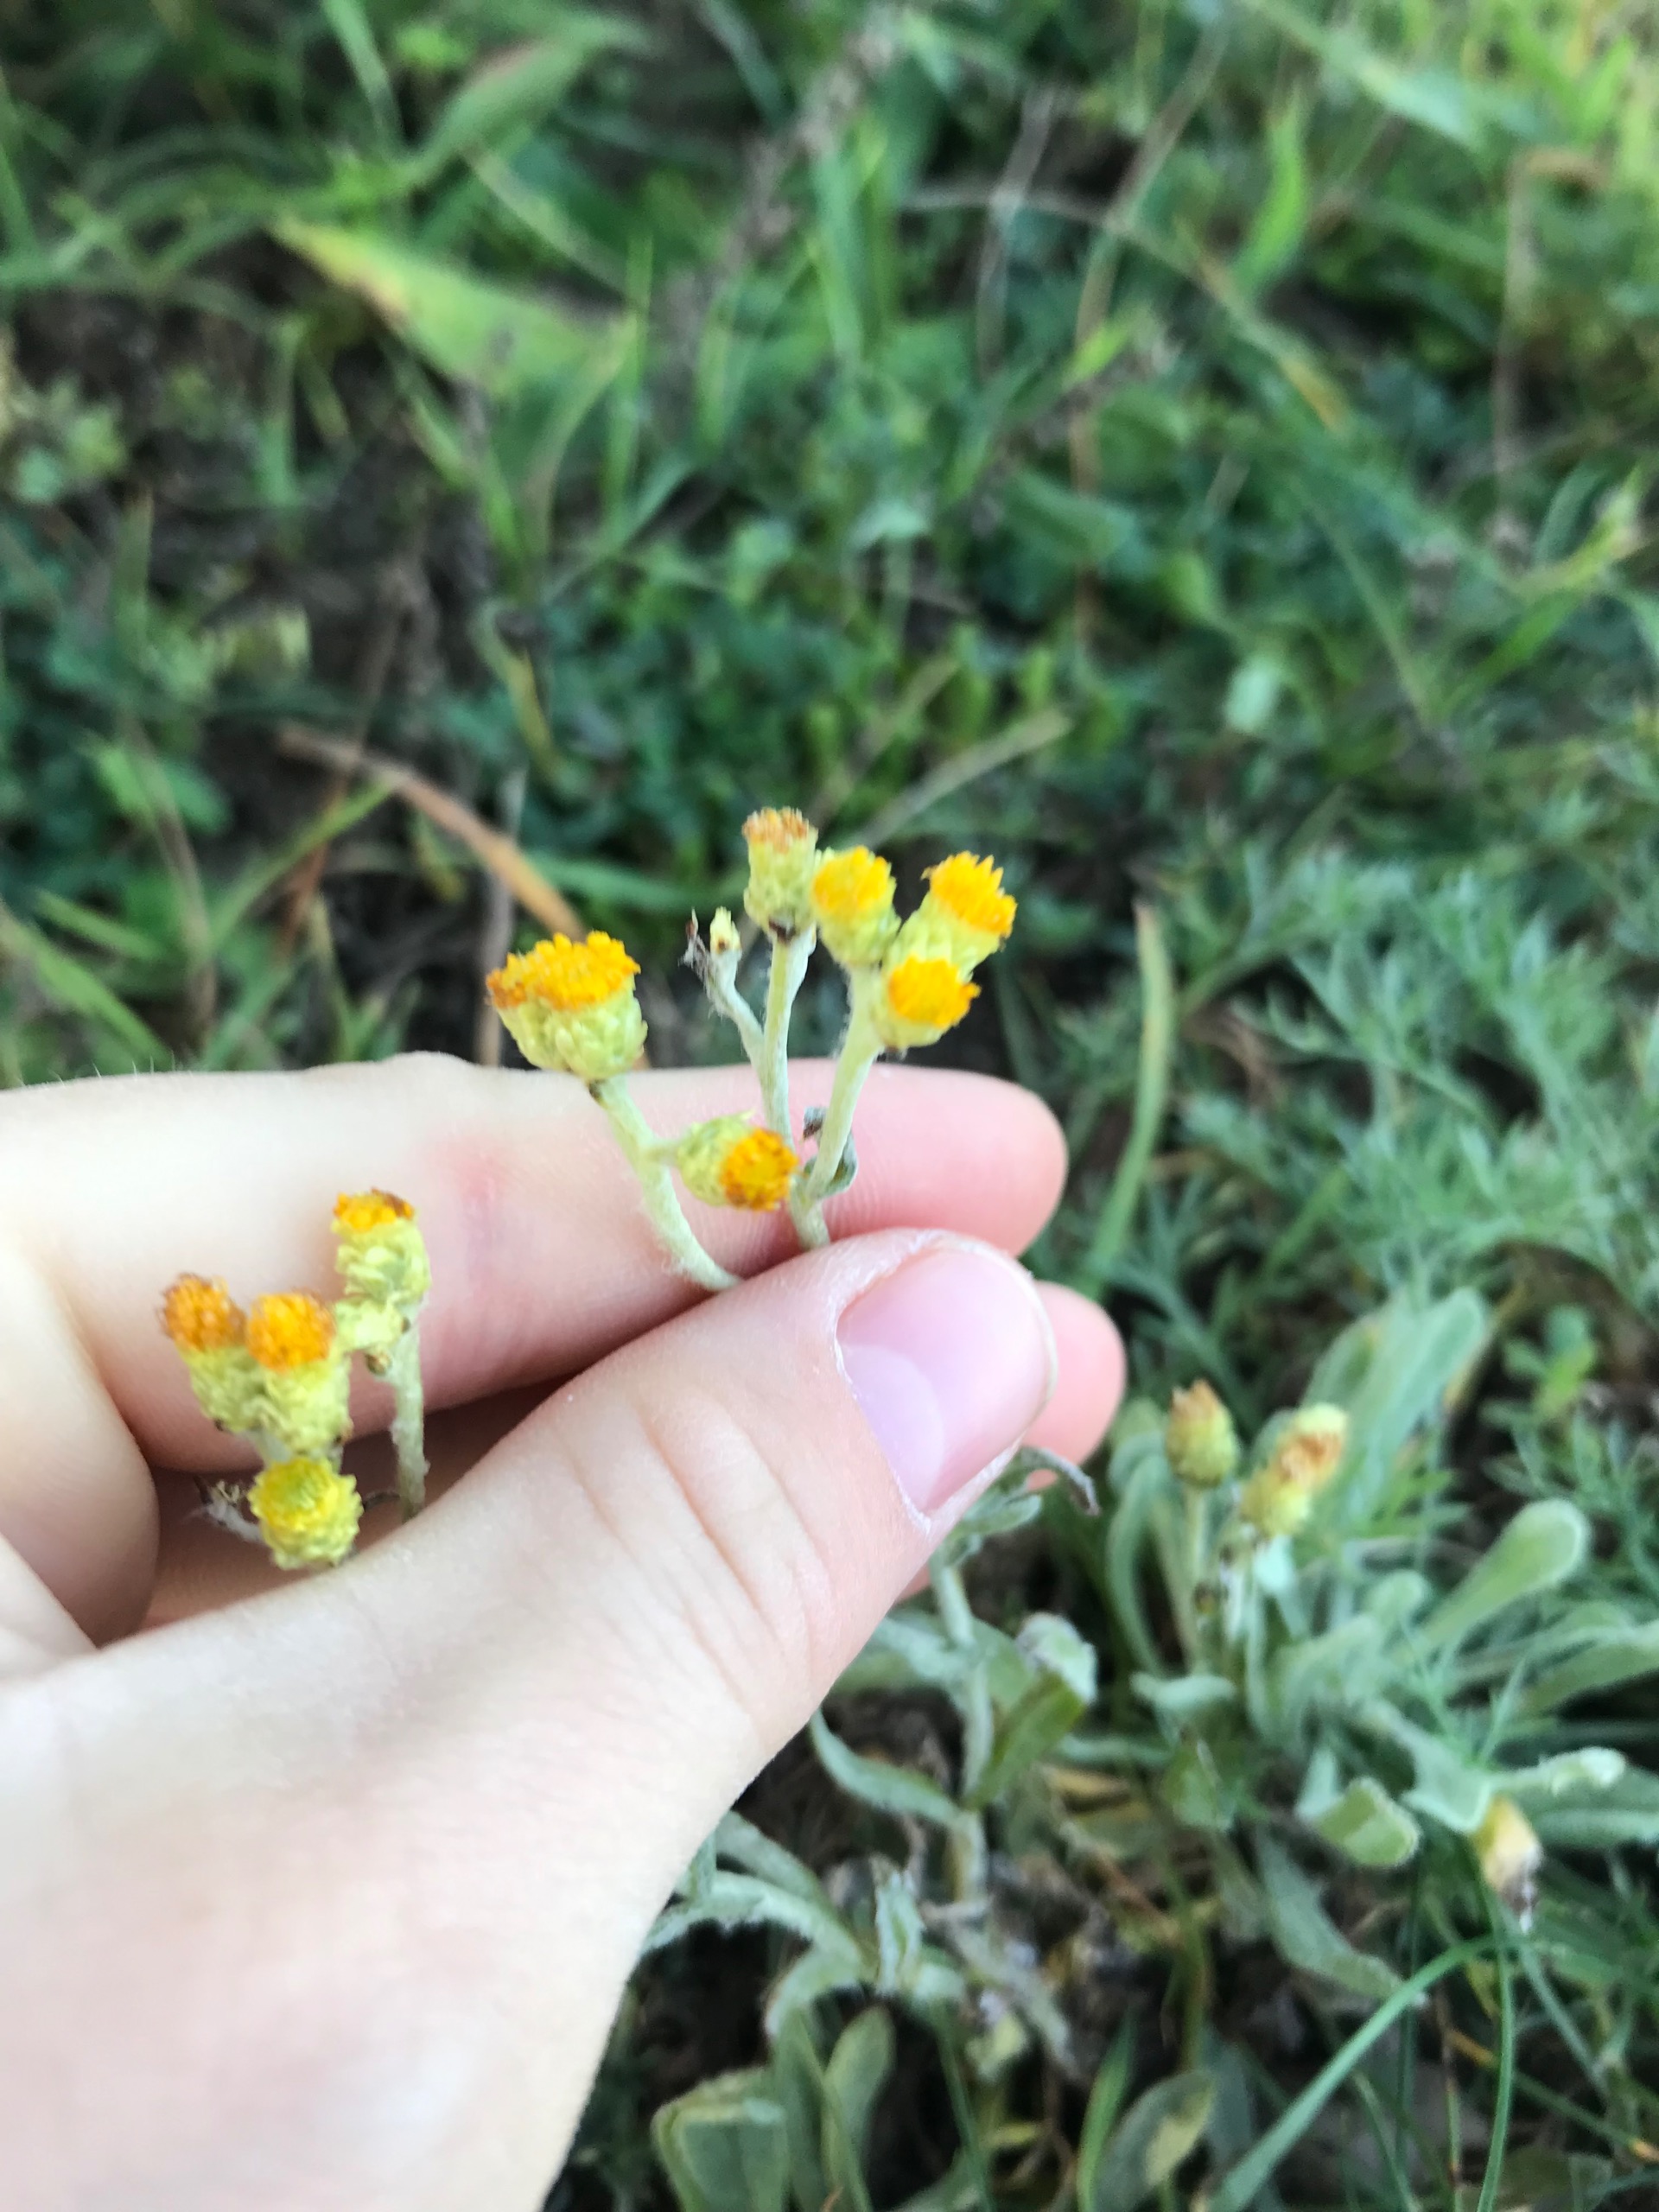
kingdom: Plantae
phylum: Tracheophyta
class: Magnoliopsida
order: Asterales
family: Asteraceae
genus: Helichrysum
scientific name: Helichrysum arenarium
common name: Gul evighedsblomst
